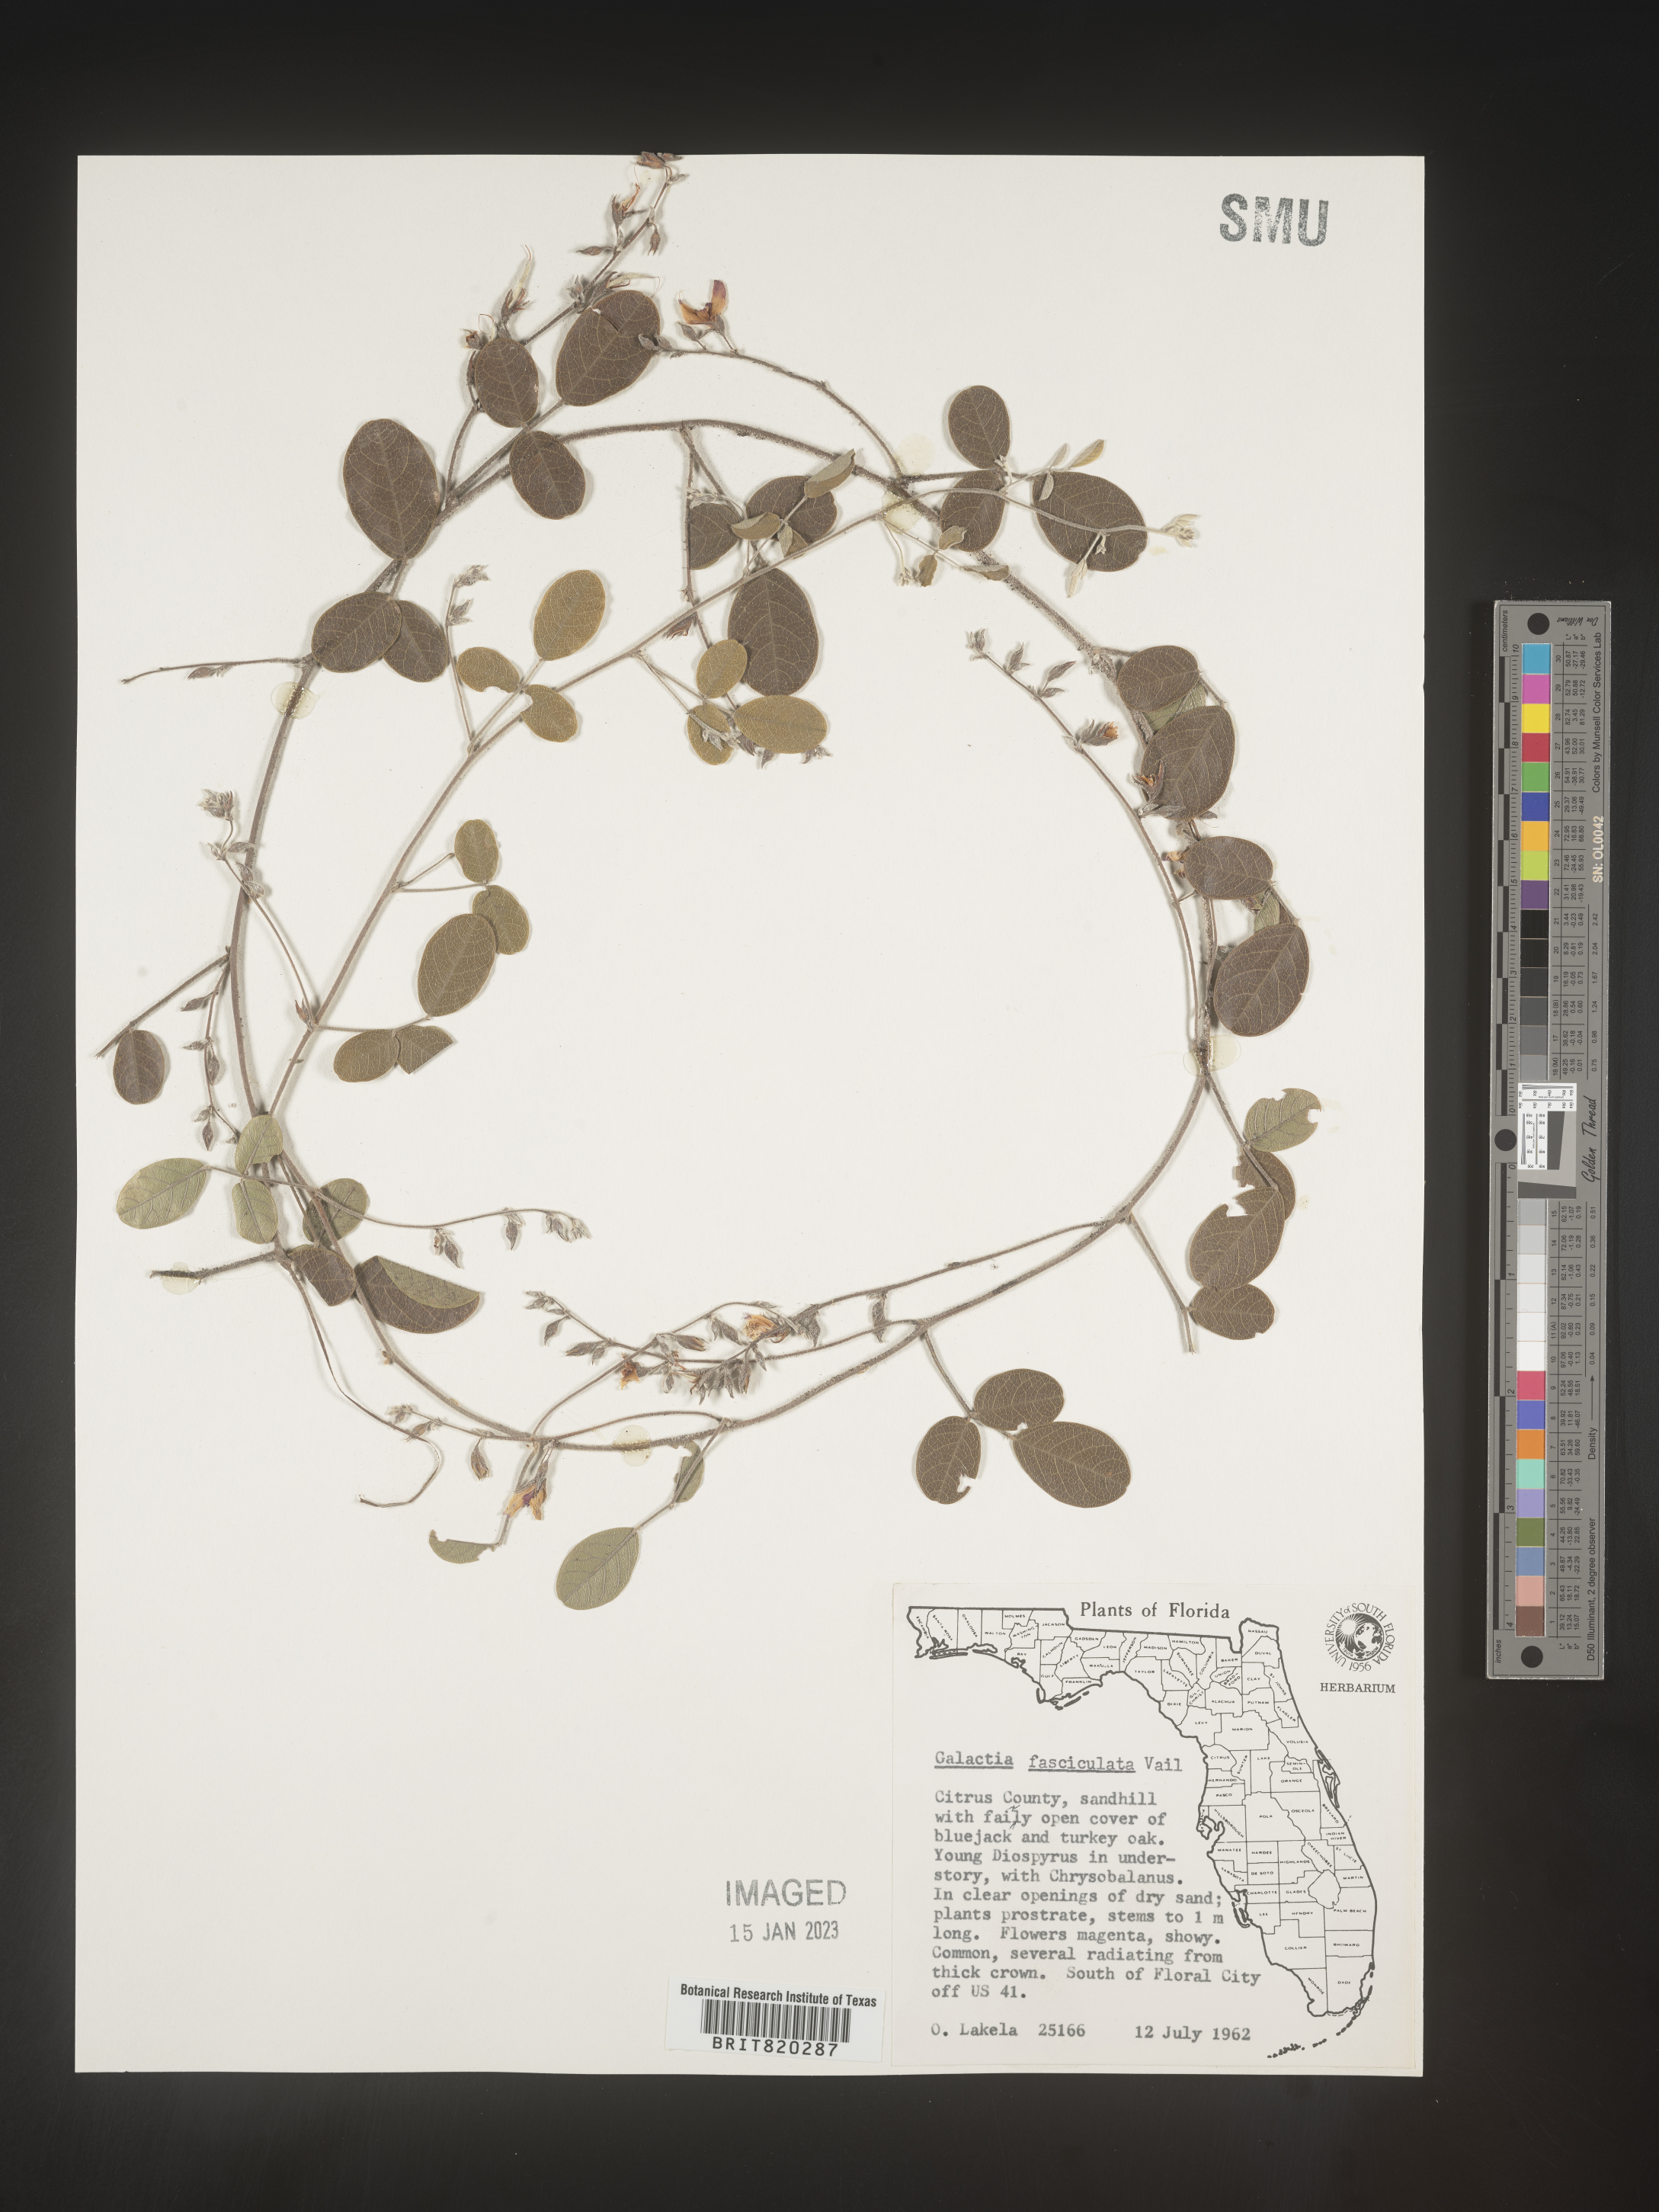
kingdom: Plantae
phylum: Tracheophyta
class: Magnoliopsida
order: Fabales
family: Fabaceae
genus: Galactia
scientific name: Galactia floridana
